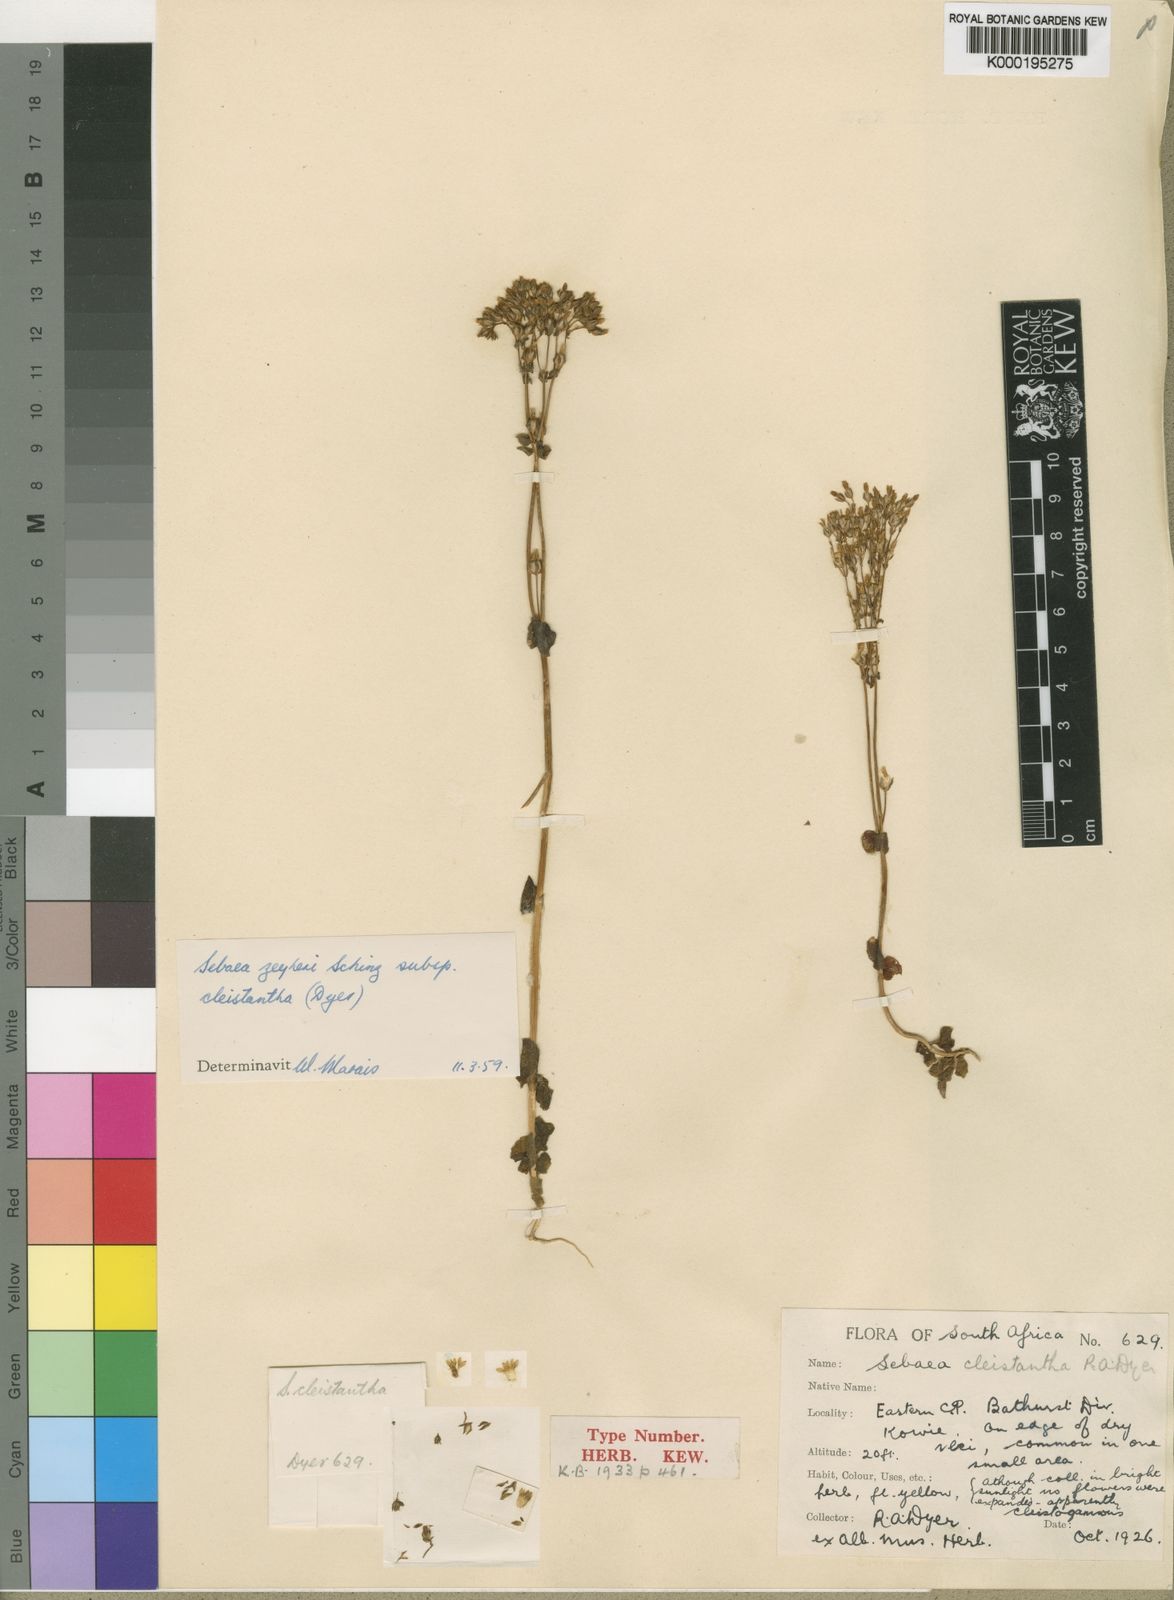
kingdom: Plantae
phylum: Tracheophyta
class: Magnoliopsida
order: Gentianales
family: Gentianaceae
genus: Sebaea
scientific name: Sebaea zeyheri
